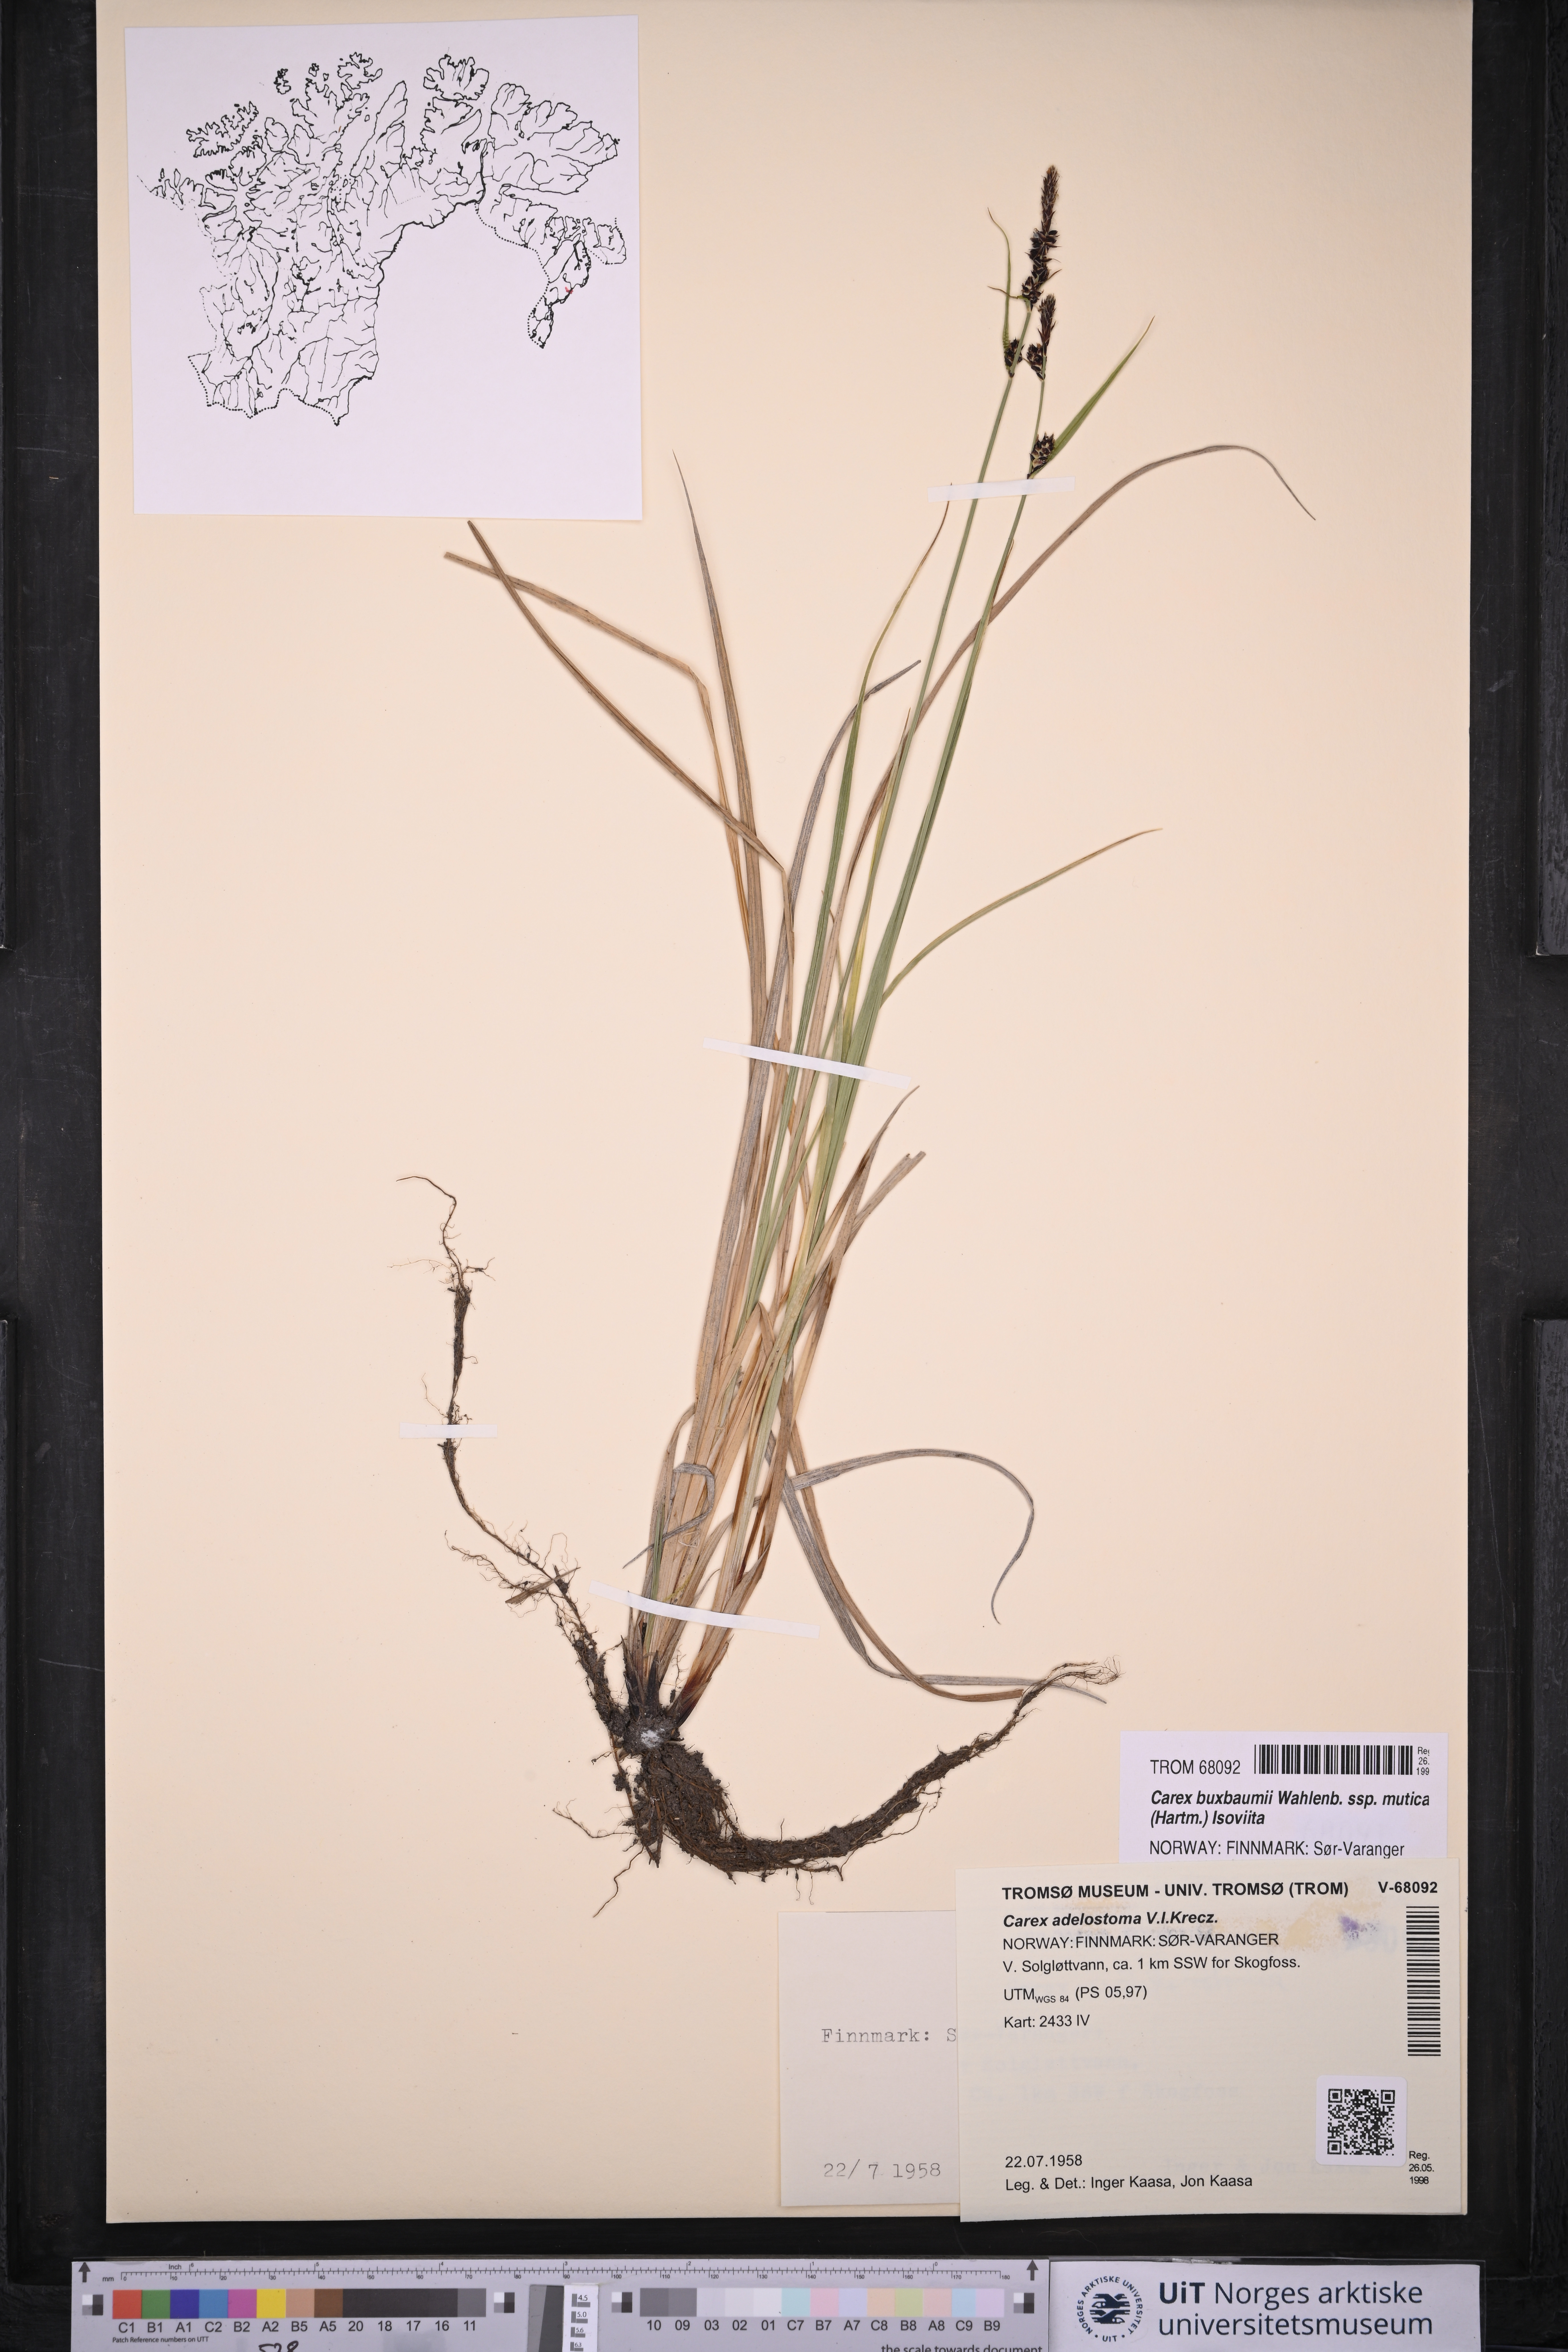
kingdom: Plantae
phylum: Tracheophyta
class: Liliopsida
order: Poales
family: Cyperaceae
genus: Carex
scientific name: Carex adelostoma
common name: Circumpolar sedge
